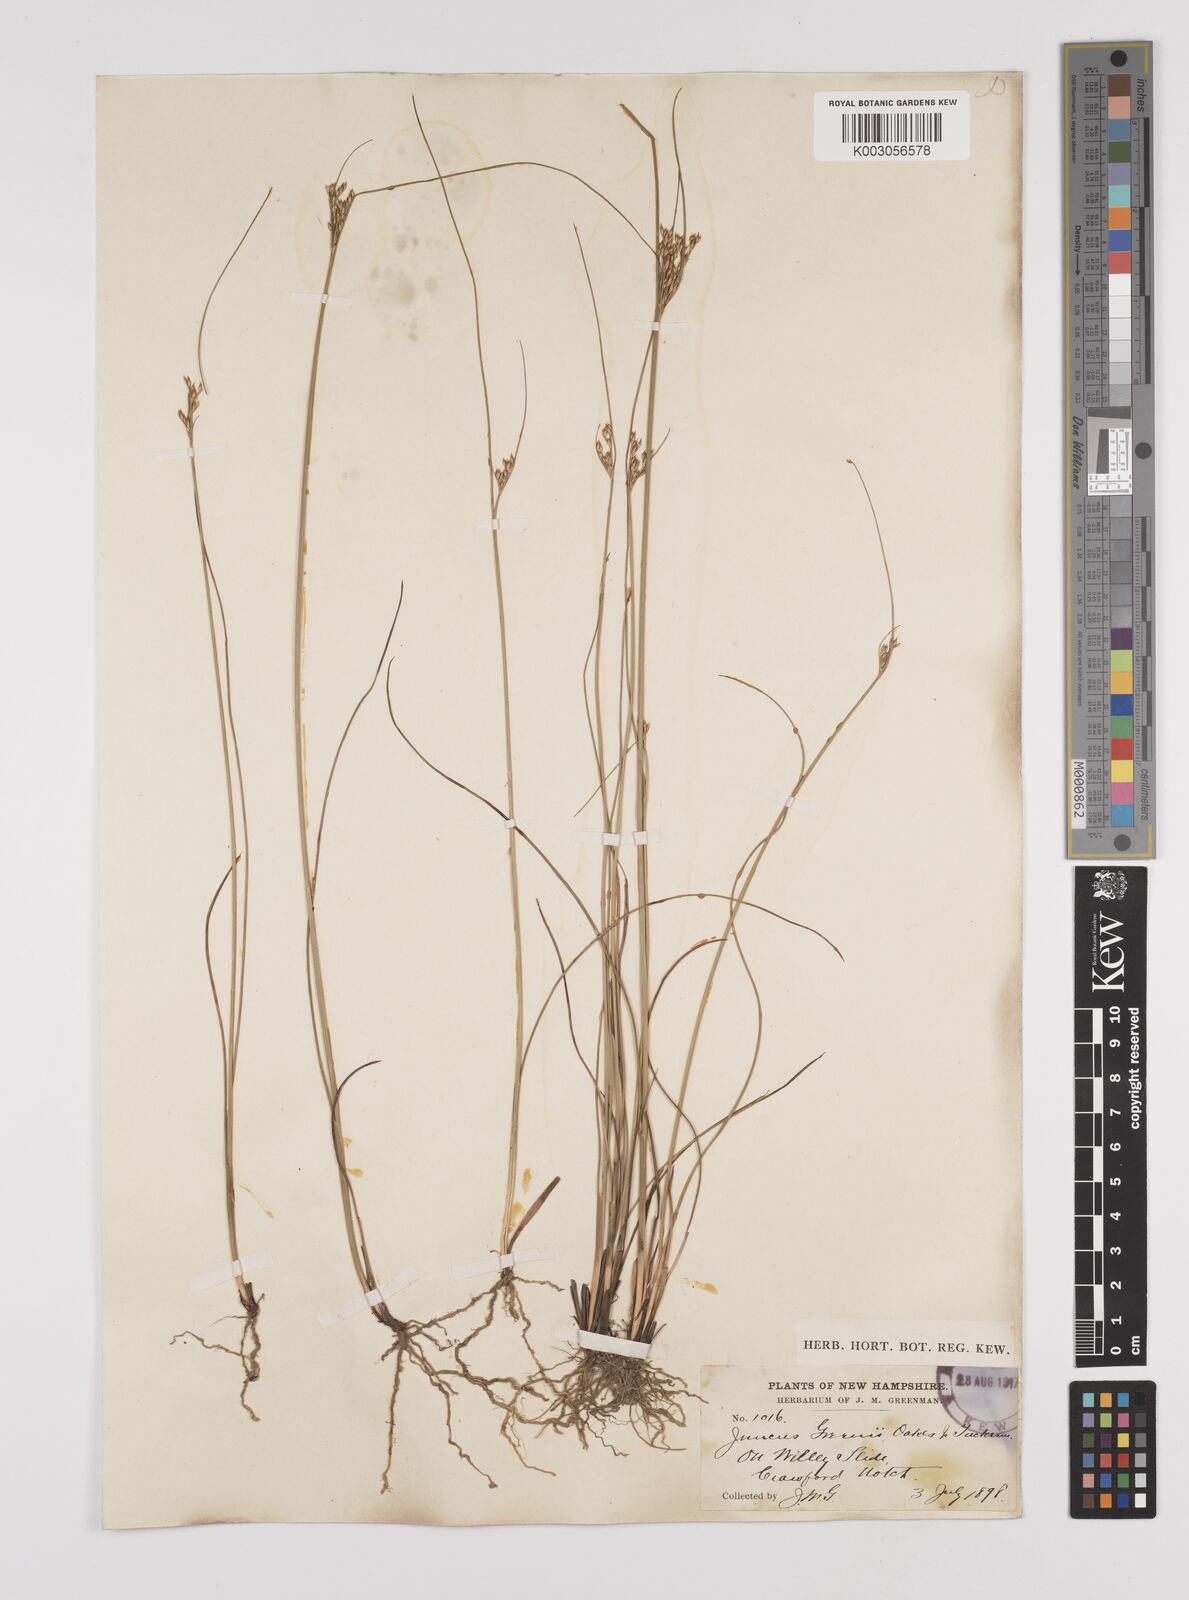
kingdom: Plantae
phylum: Tracheophyta
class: Liliopsida
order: Poales
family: Juncaceae
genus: Juncus
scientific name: Juncus greenei
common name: Greene's rush
